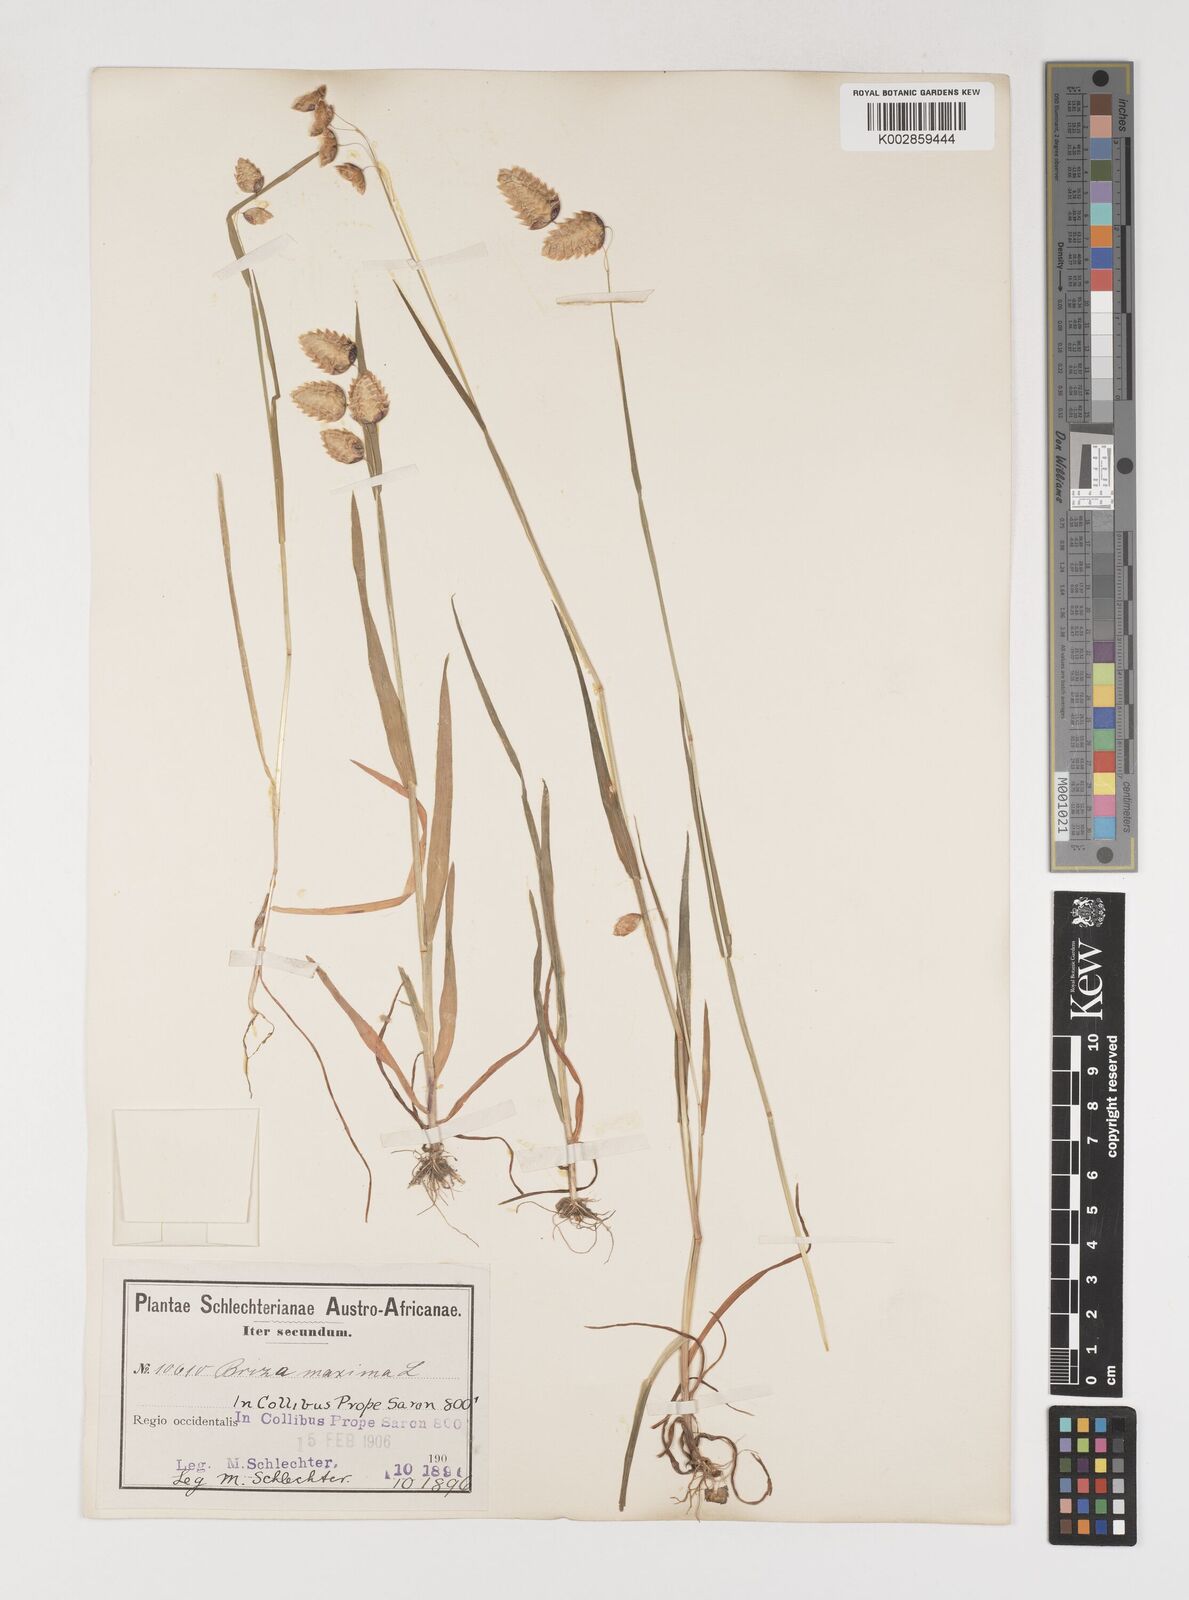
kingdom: Plantae
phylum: Tracheophyta
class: Liliopsida
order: Poales
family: Poaceae
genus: Briza
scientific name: Briza maxima
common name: Big quakinggrass
